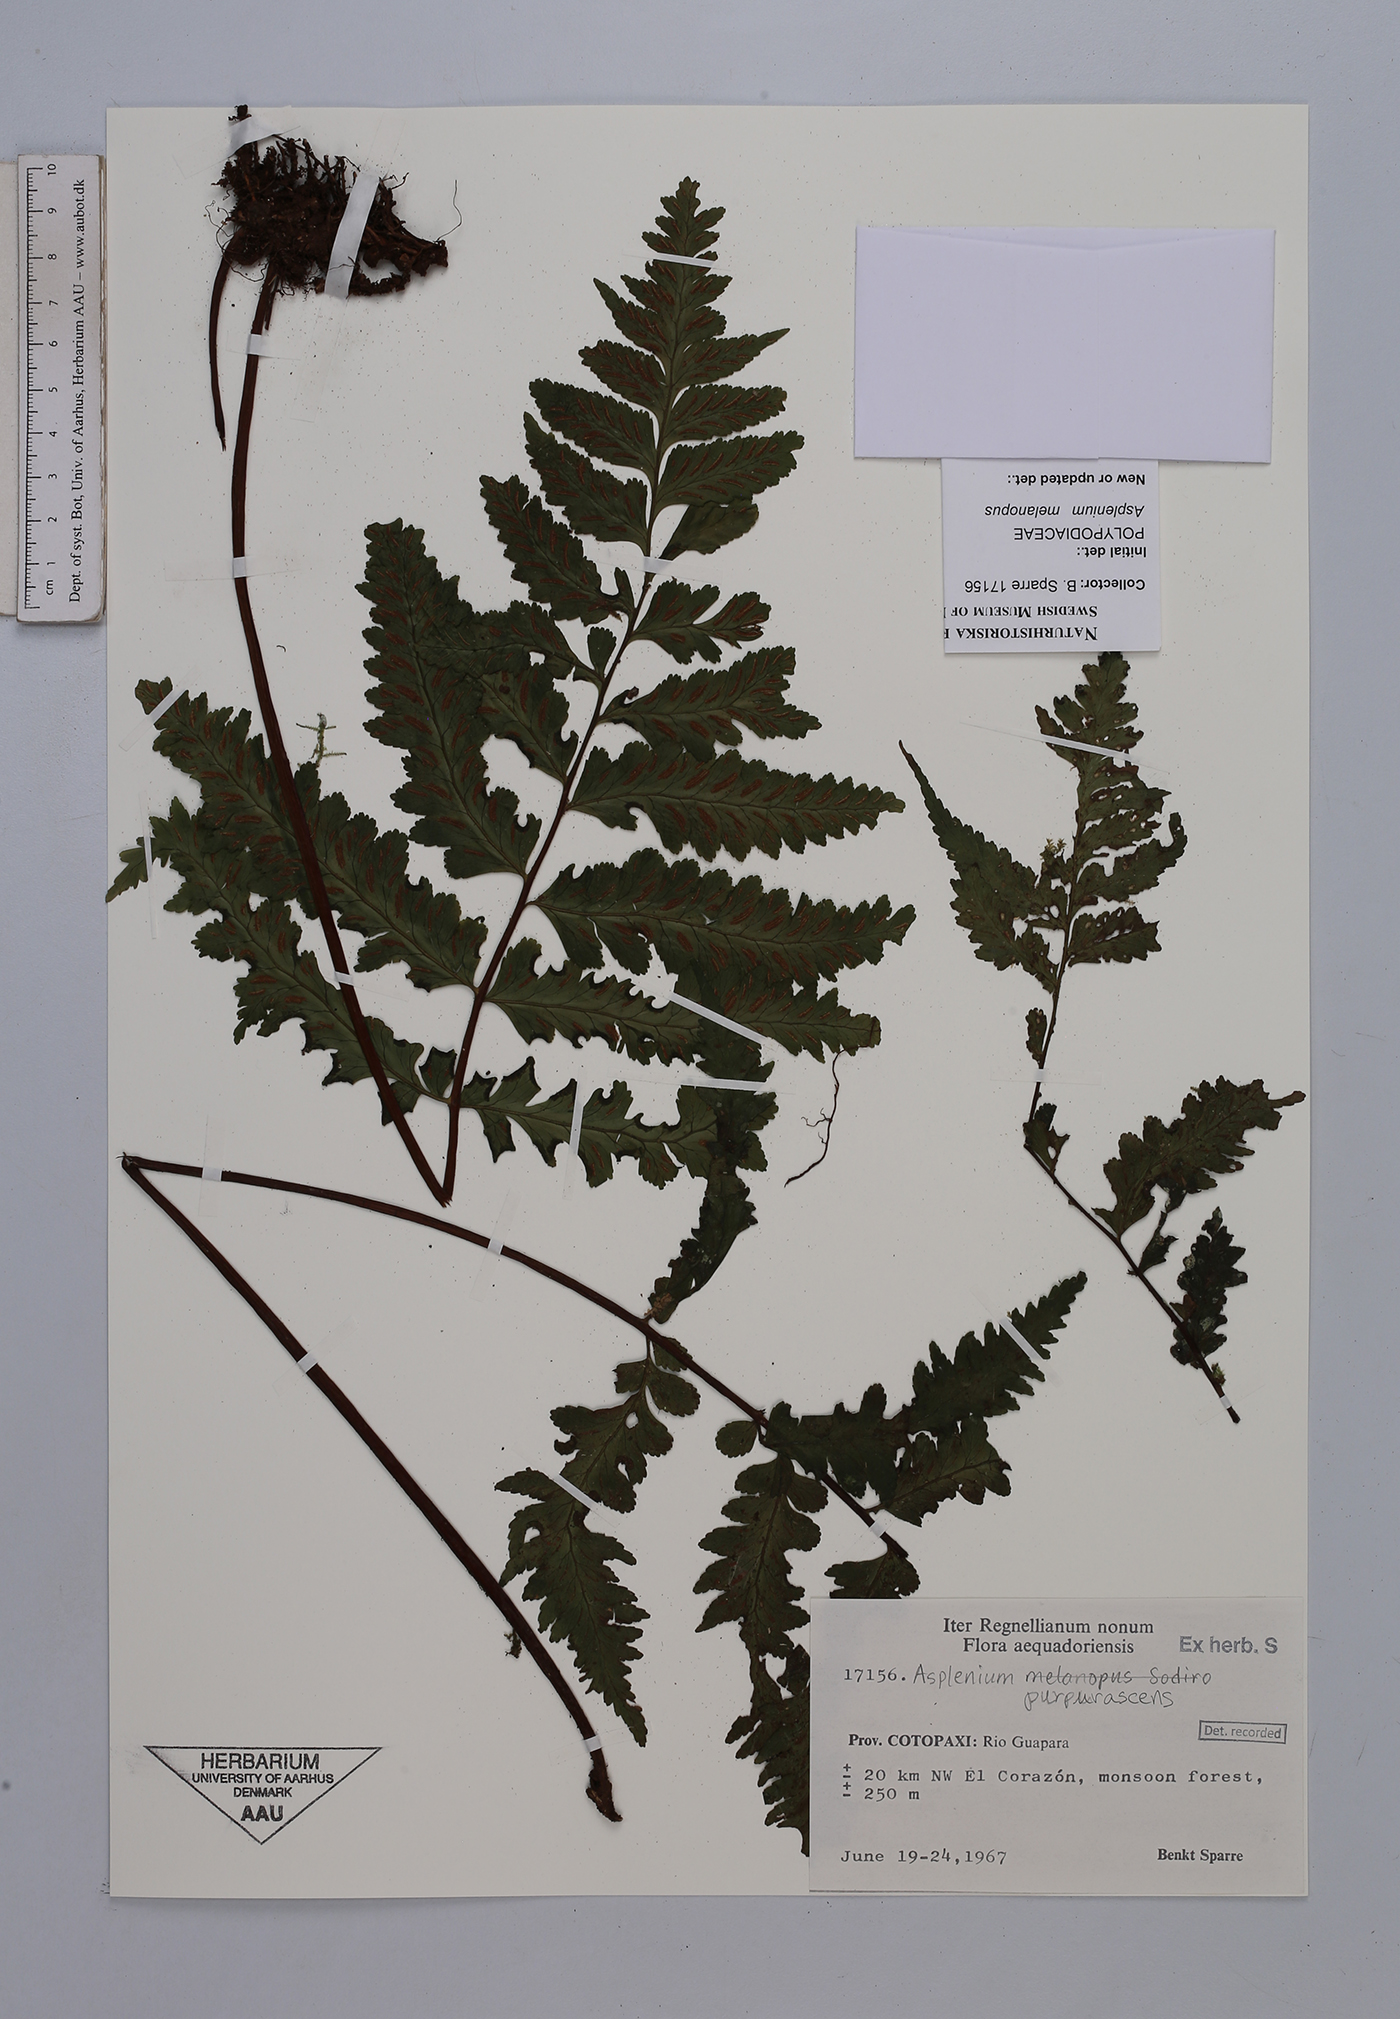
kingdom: Plantae
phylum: Tracheophyta
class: Polypodiopsida
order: Polypodiales
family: Aspleniaceae
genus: Hymenasplenium
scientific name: Hymenasplenium purpurascens
